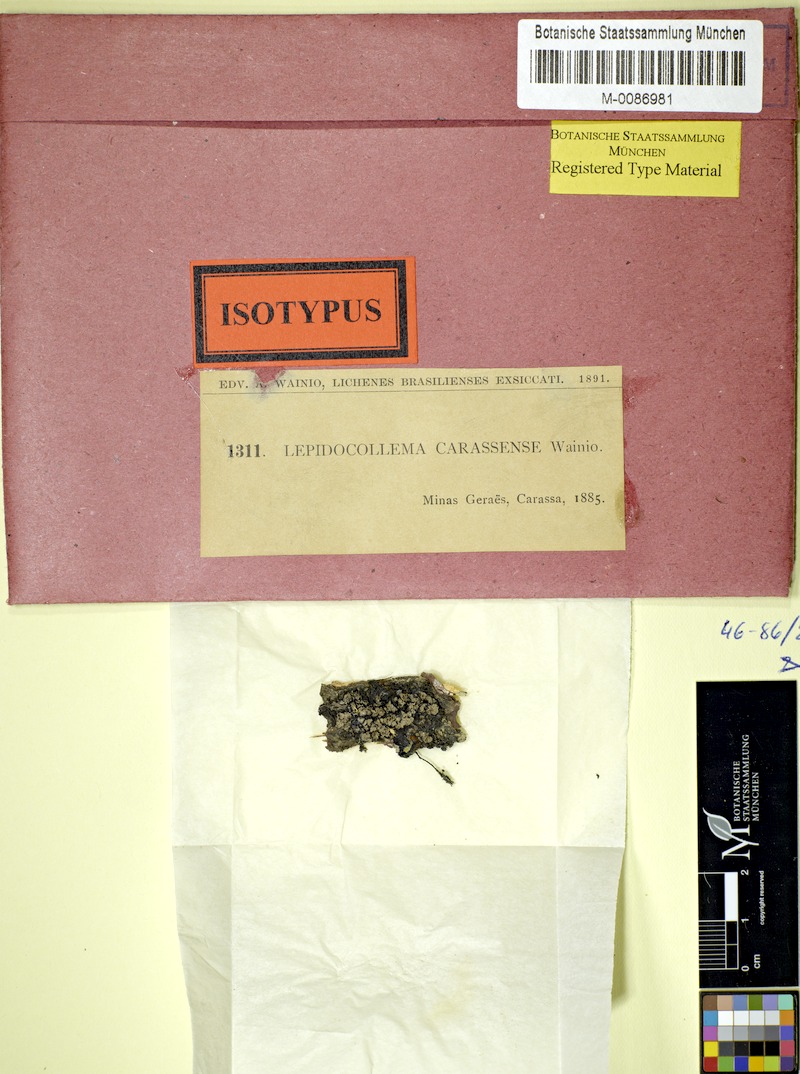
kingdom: Fungi
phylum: Ascomycota
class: Lecanoromycetes
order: Peltigerales
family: Pannariaceae
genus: Lepidocollema
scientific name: Lepidocollema
